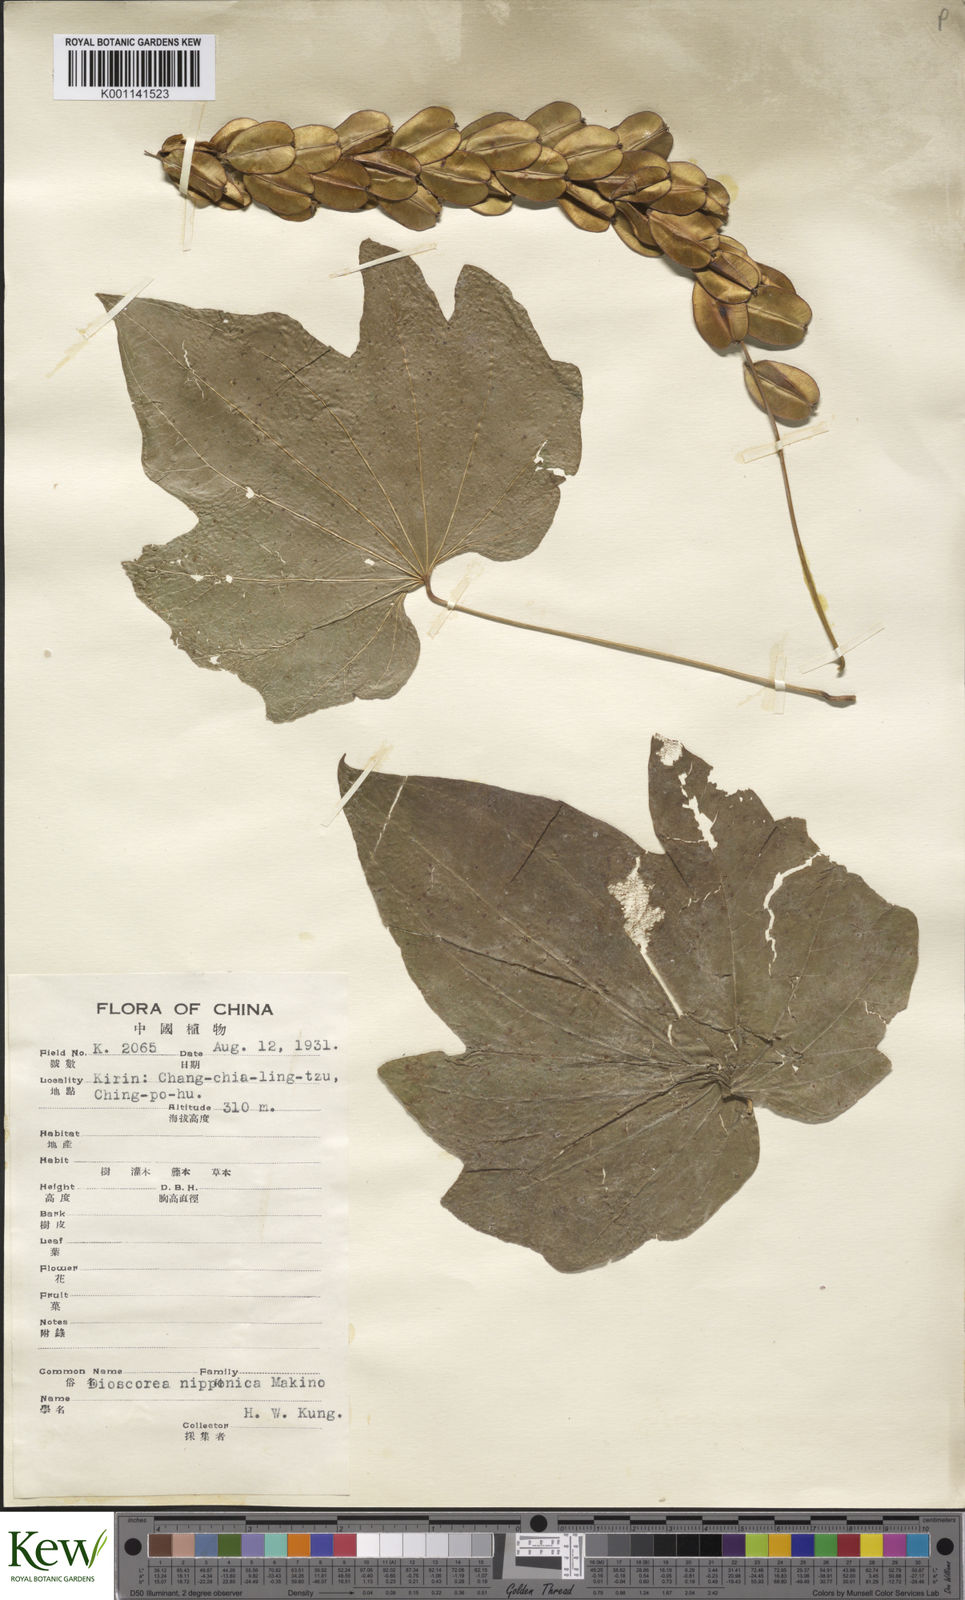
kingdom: Plantae
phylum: Tracheophyta
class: Liliopsida
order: Dioscoreales
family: Dioscoreaceae
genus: Dioscorea
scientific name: Dioscorea nipponica
